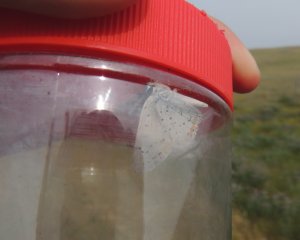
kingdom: Animalia
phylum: Arthropoda
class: Insecta
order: Lepidoptera
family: Lycaenidae
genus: Nacaduba
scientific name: Nacaduba dyopa
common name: Gray Copper
